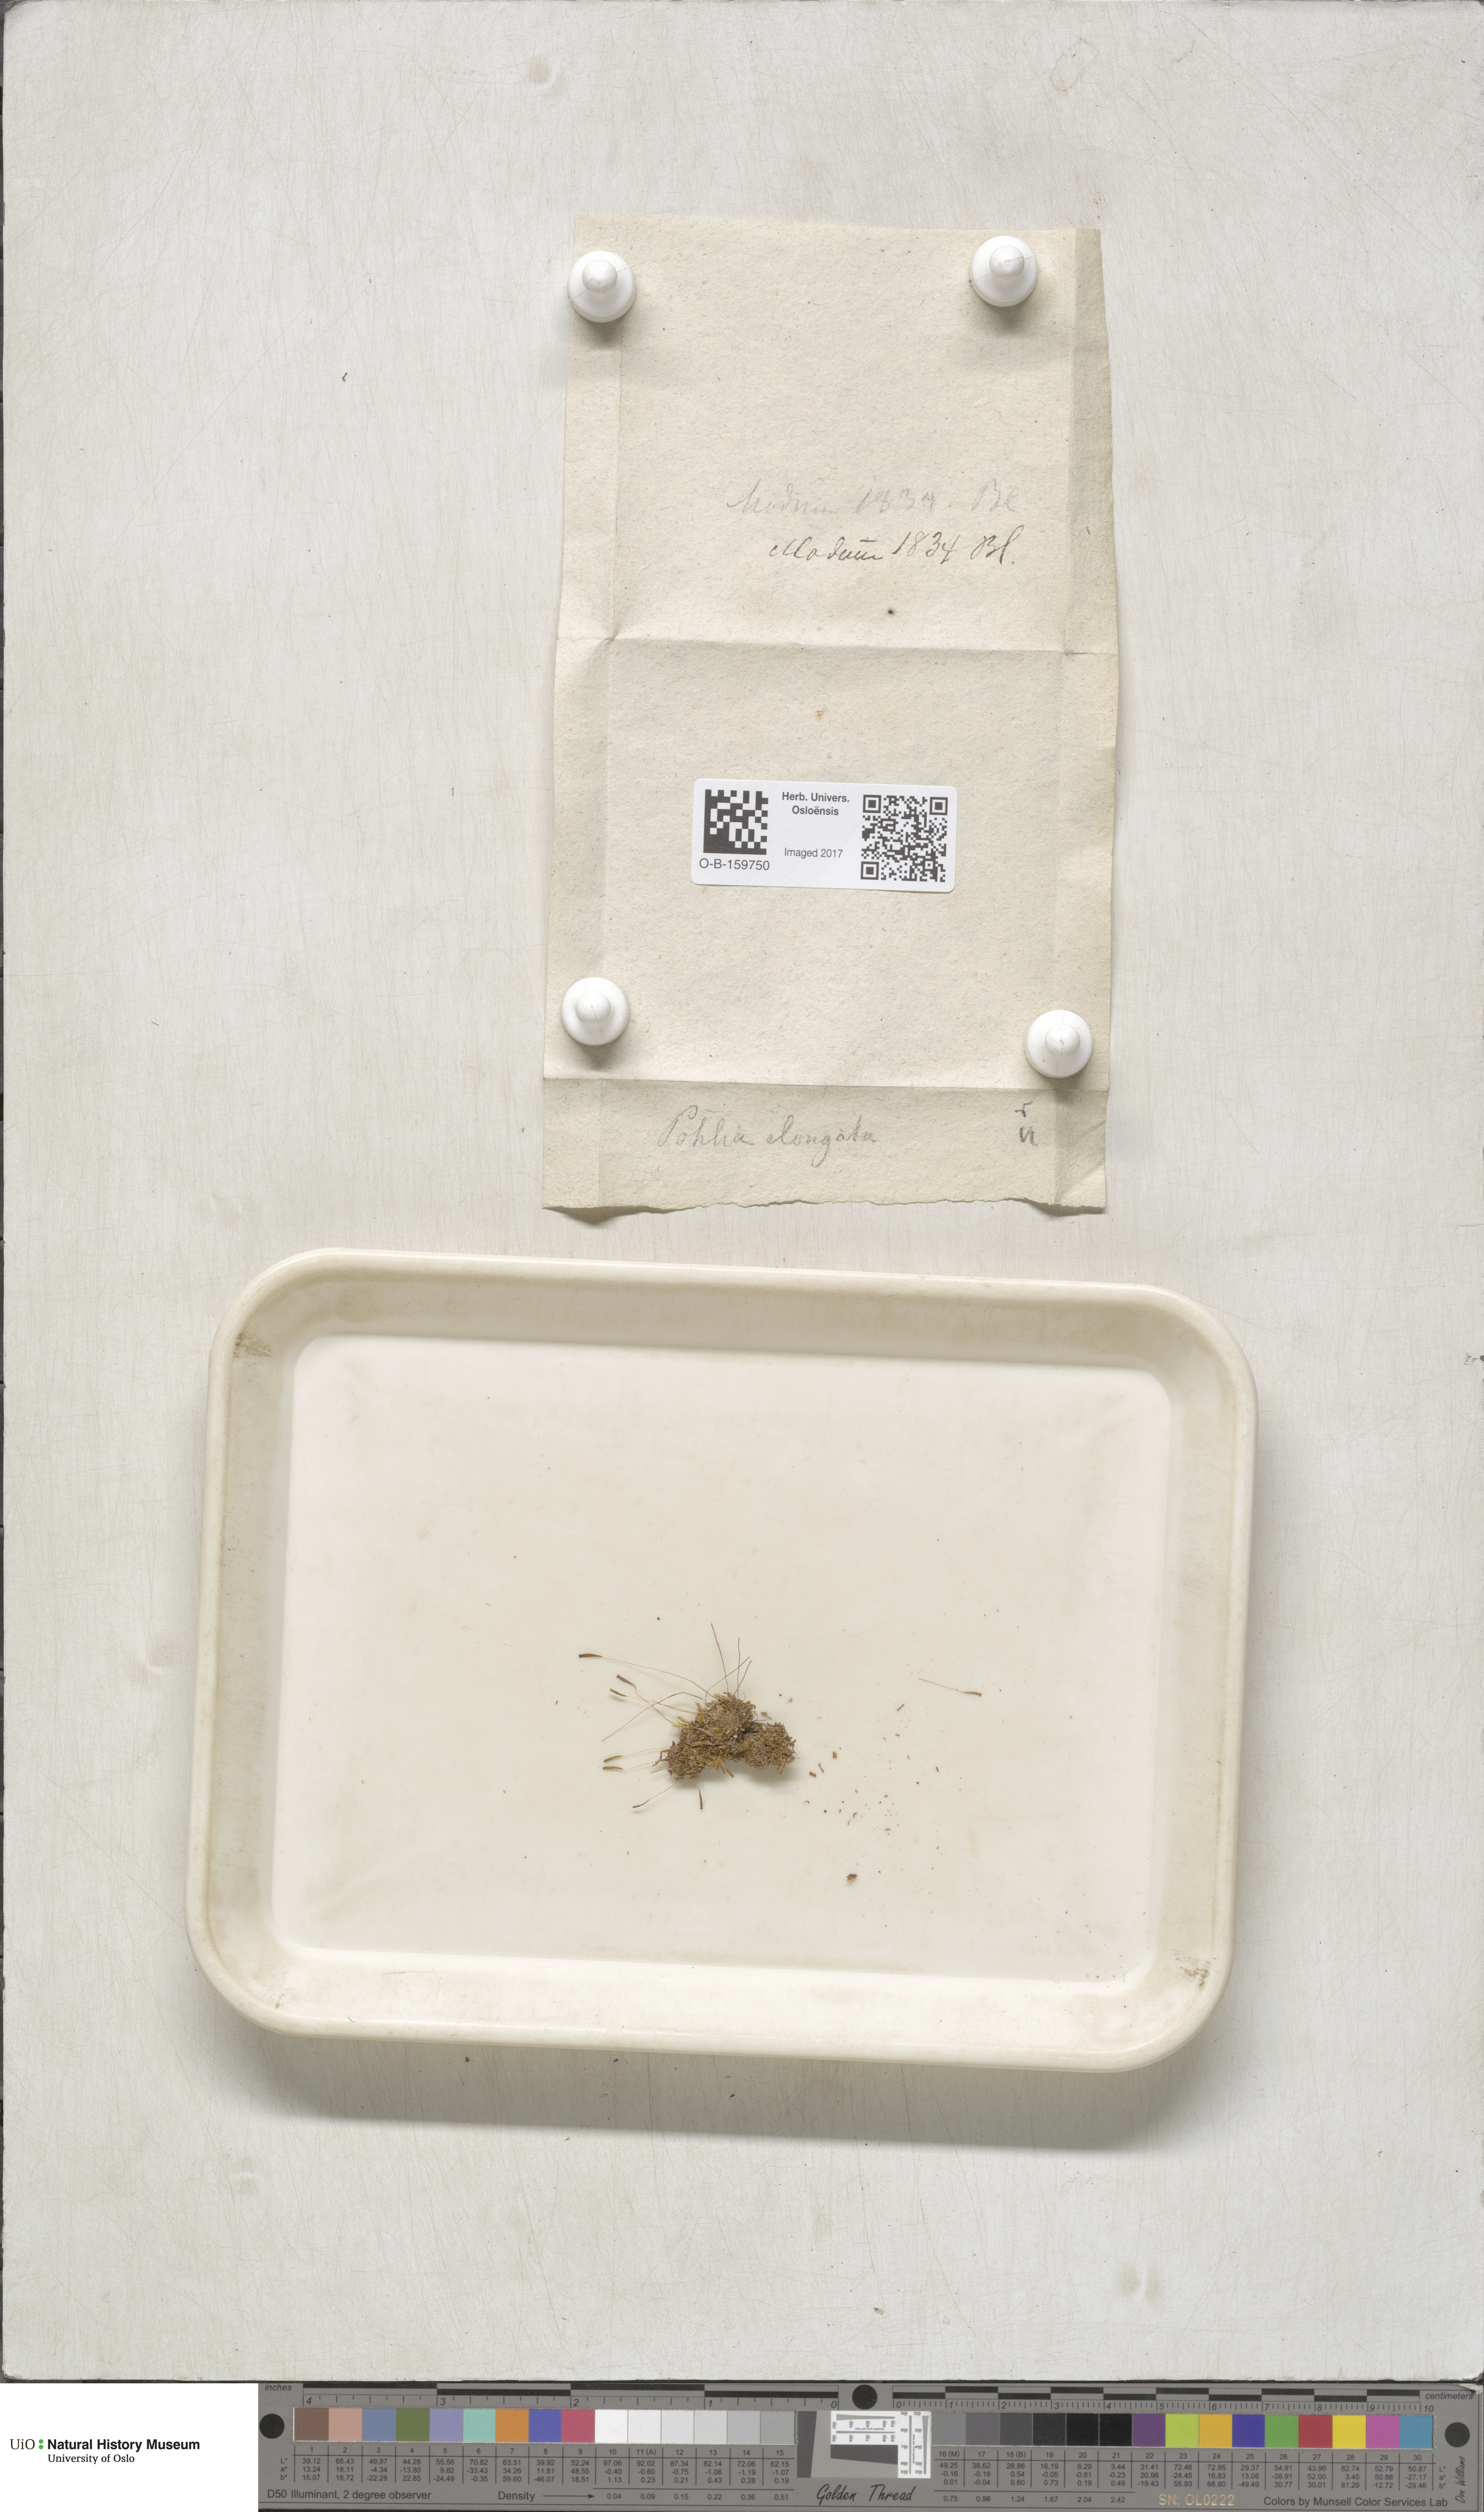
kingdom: Plantae
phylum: Bryophyta
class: Bryopsida
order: Bryales
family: Mniaceae
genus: Pohlia
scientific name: Pohlia elongata
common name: Long-fruited thread-moss
